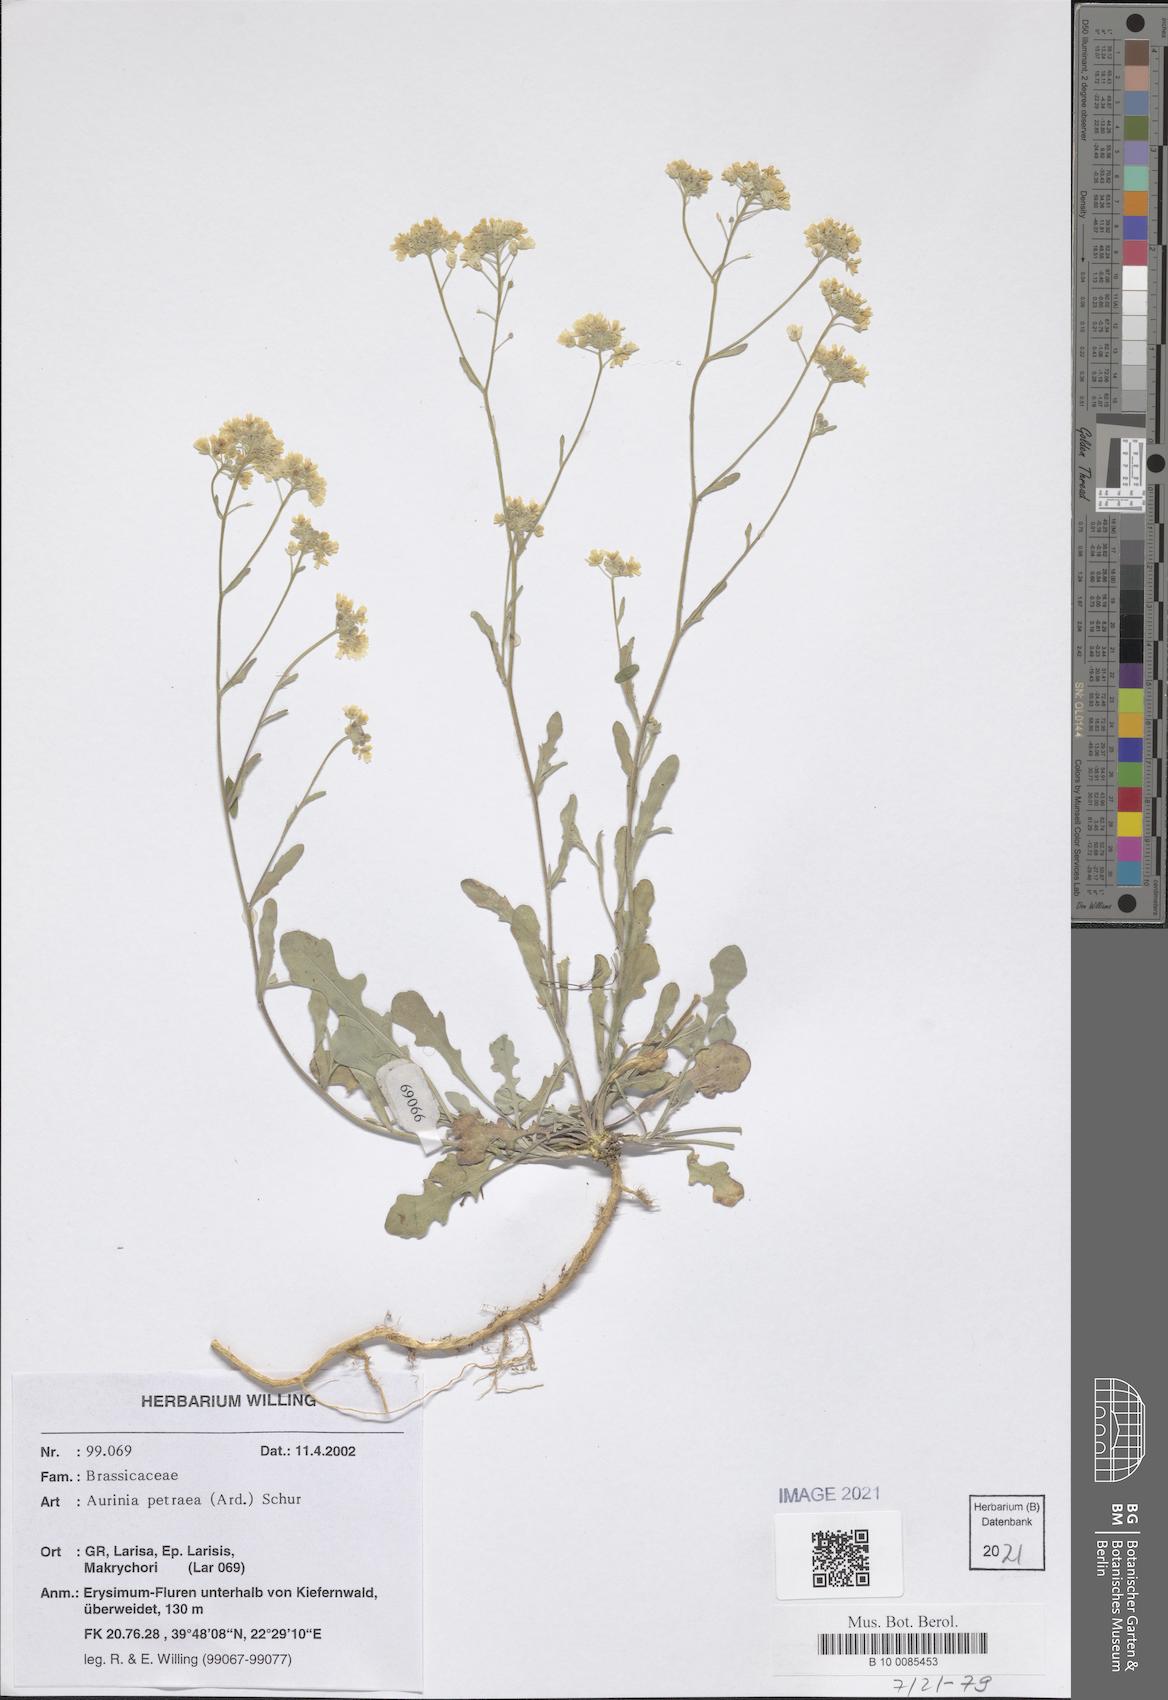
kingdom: Plantae
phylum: Tracheophyta
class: Magnoliopsida
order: Brassicales
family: Brassicaceae
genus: Aurinia
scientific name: Aurinia petraea
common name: Goldentuft
